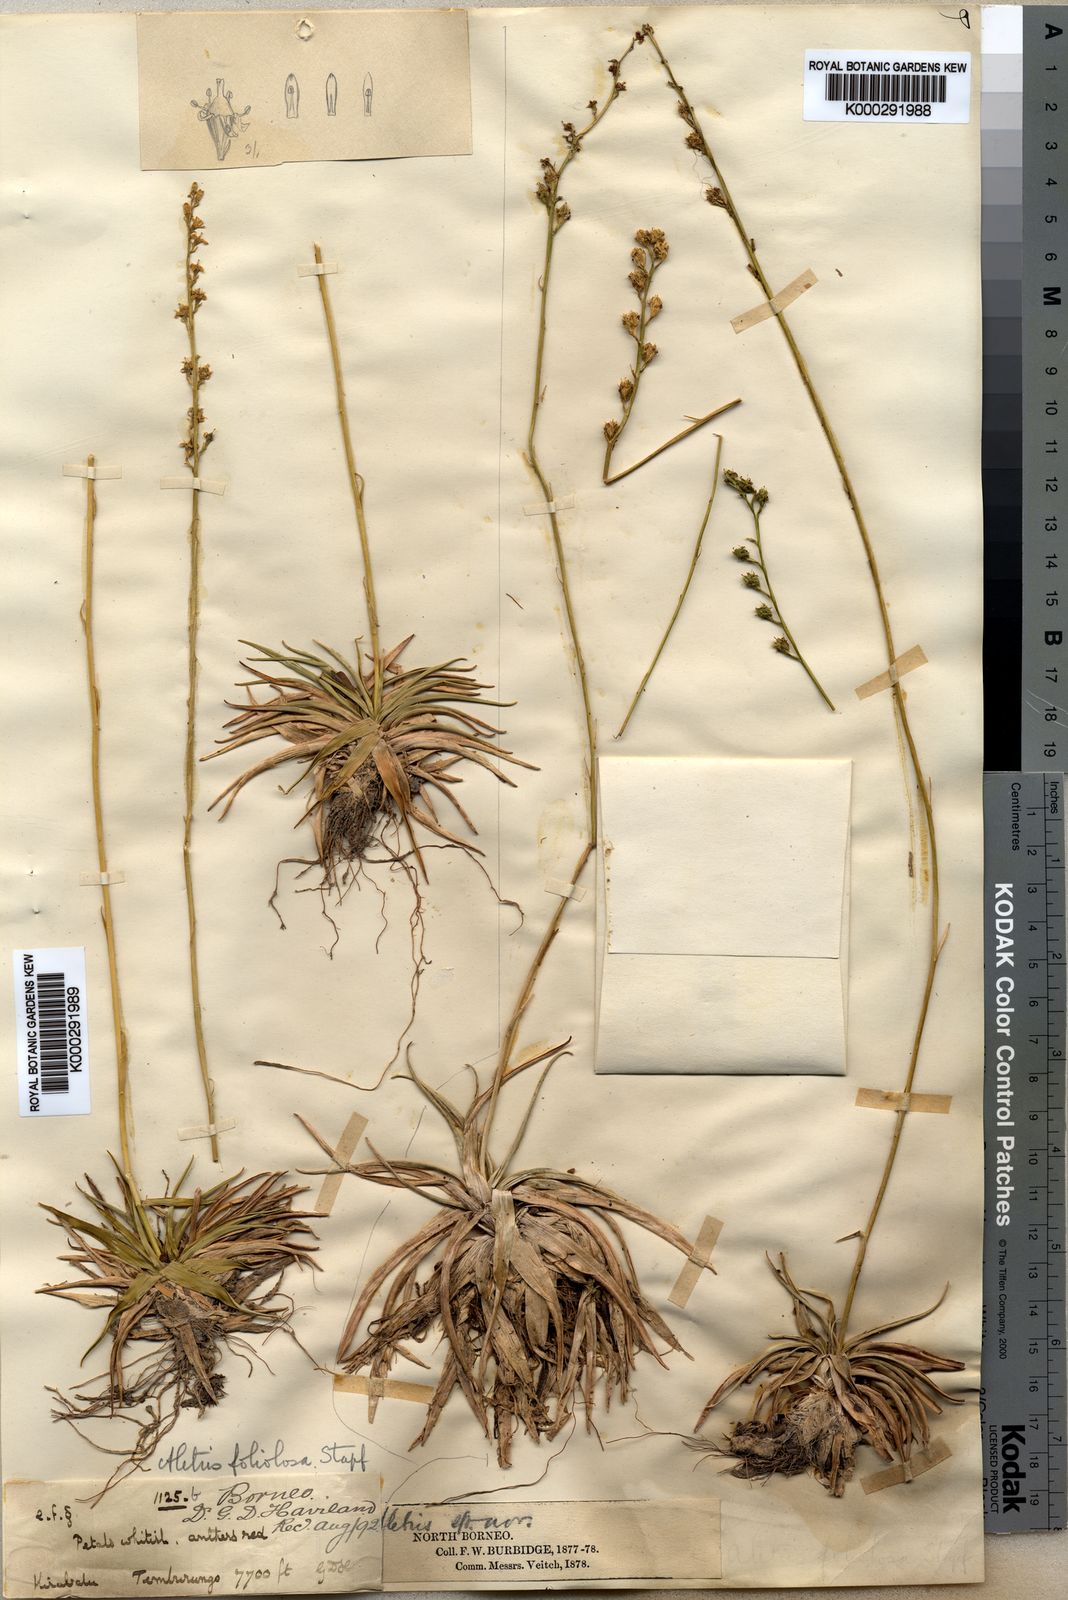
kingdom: Plantae
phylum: Tracheophyta
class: Liliopsida
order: Dioscoreales
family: Nartheciaceae
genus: Aletris
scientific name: Aletris foliolosa
